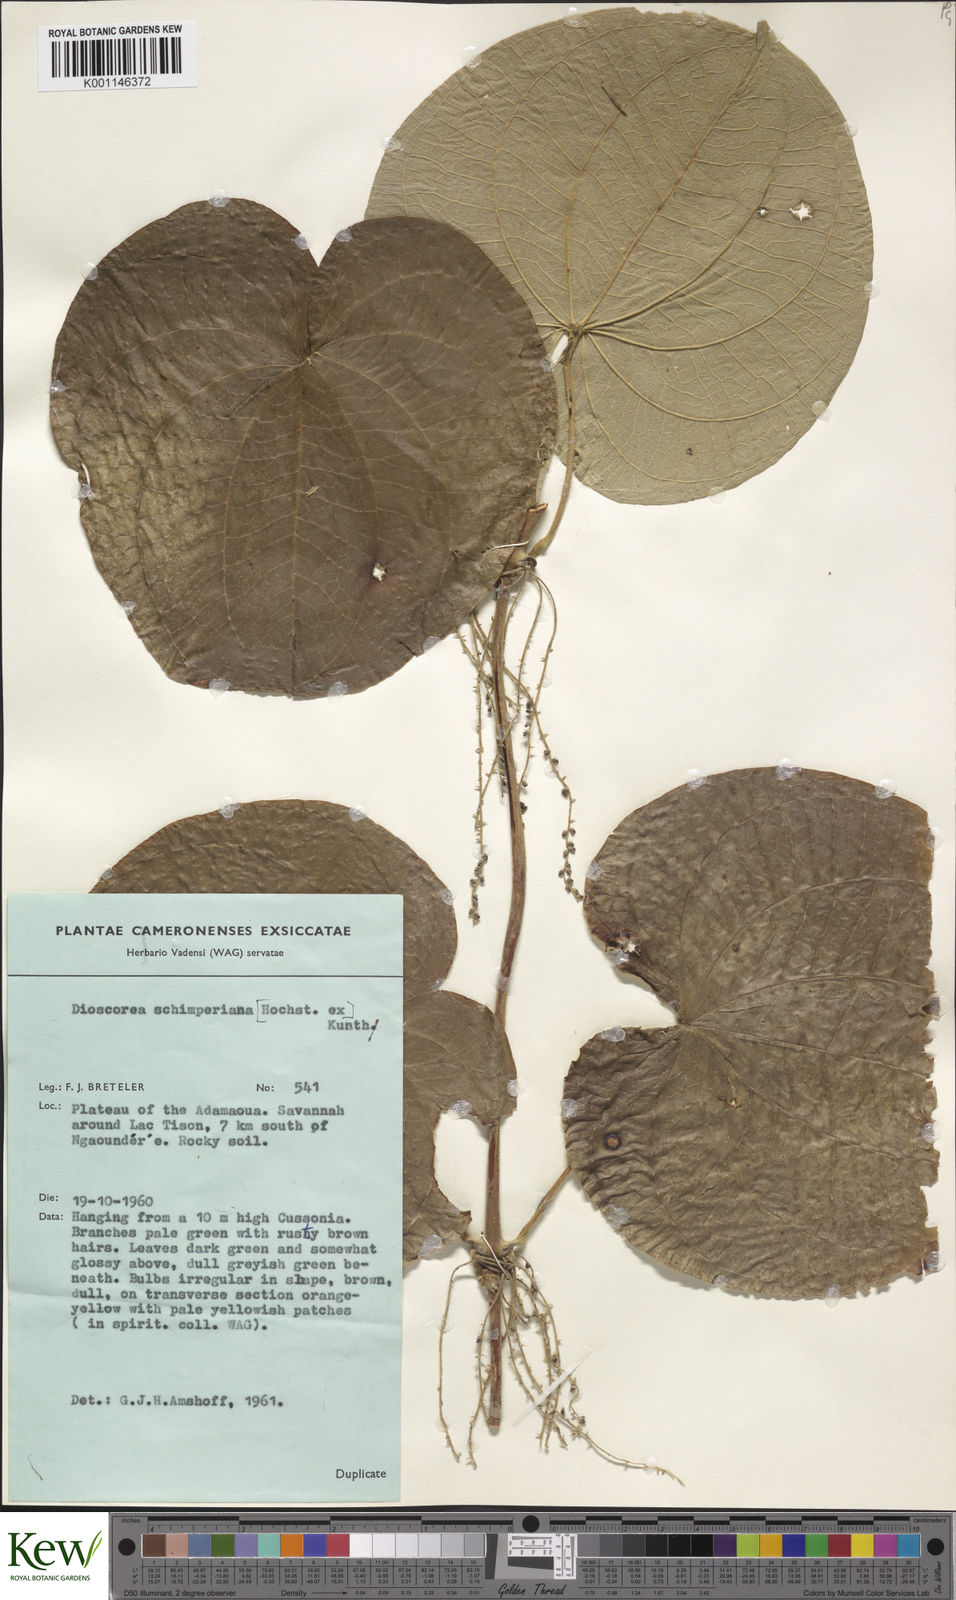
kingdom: Plantae
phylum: Tracheophyta
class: Liliopsida
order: Dioscoreales
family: Dioscoreaceae
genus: Dioscorea
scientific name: Dioscorea schimperiana
